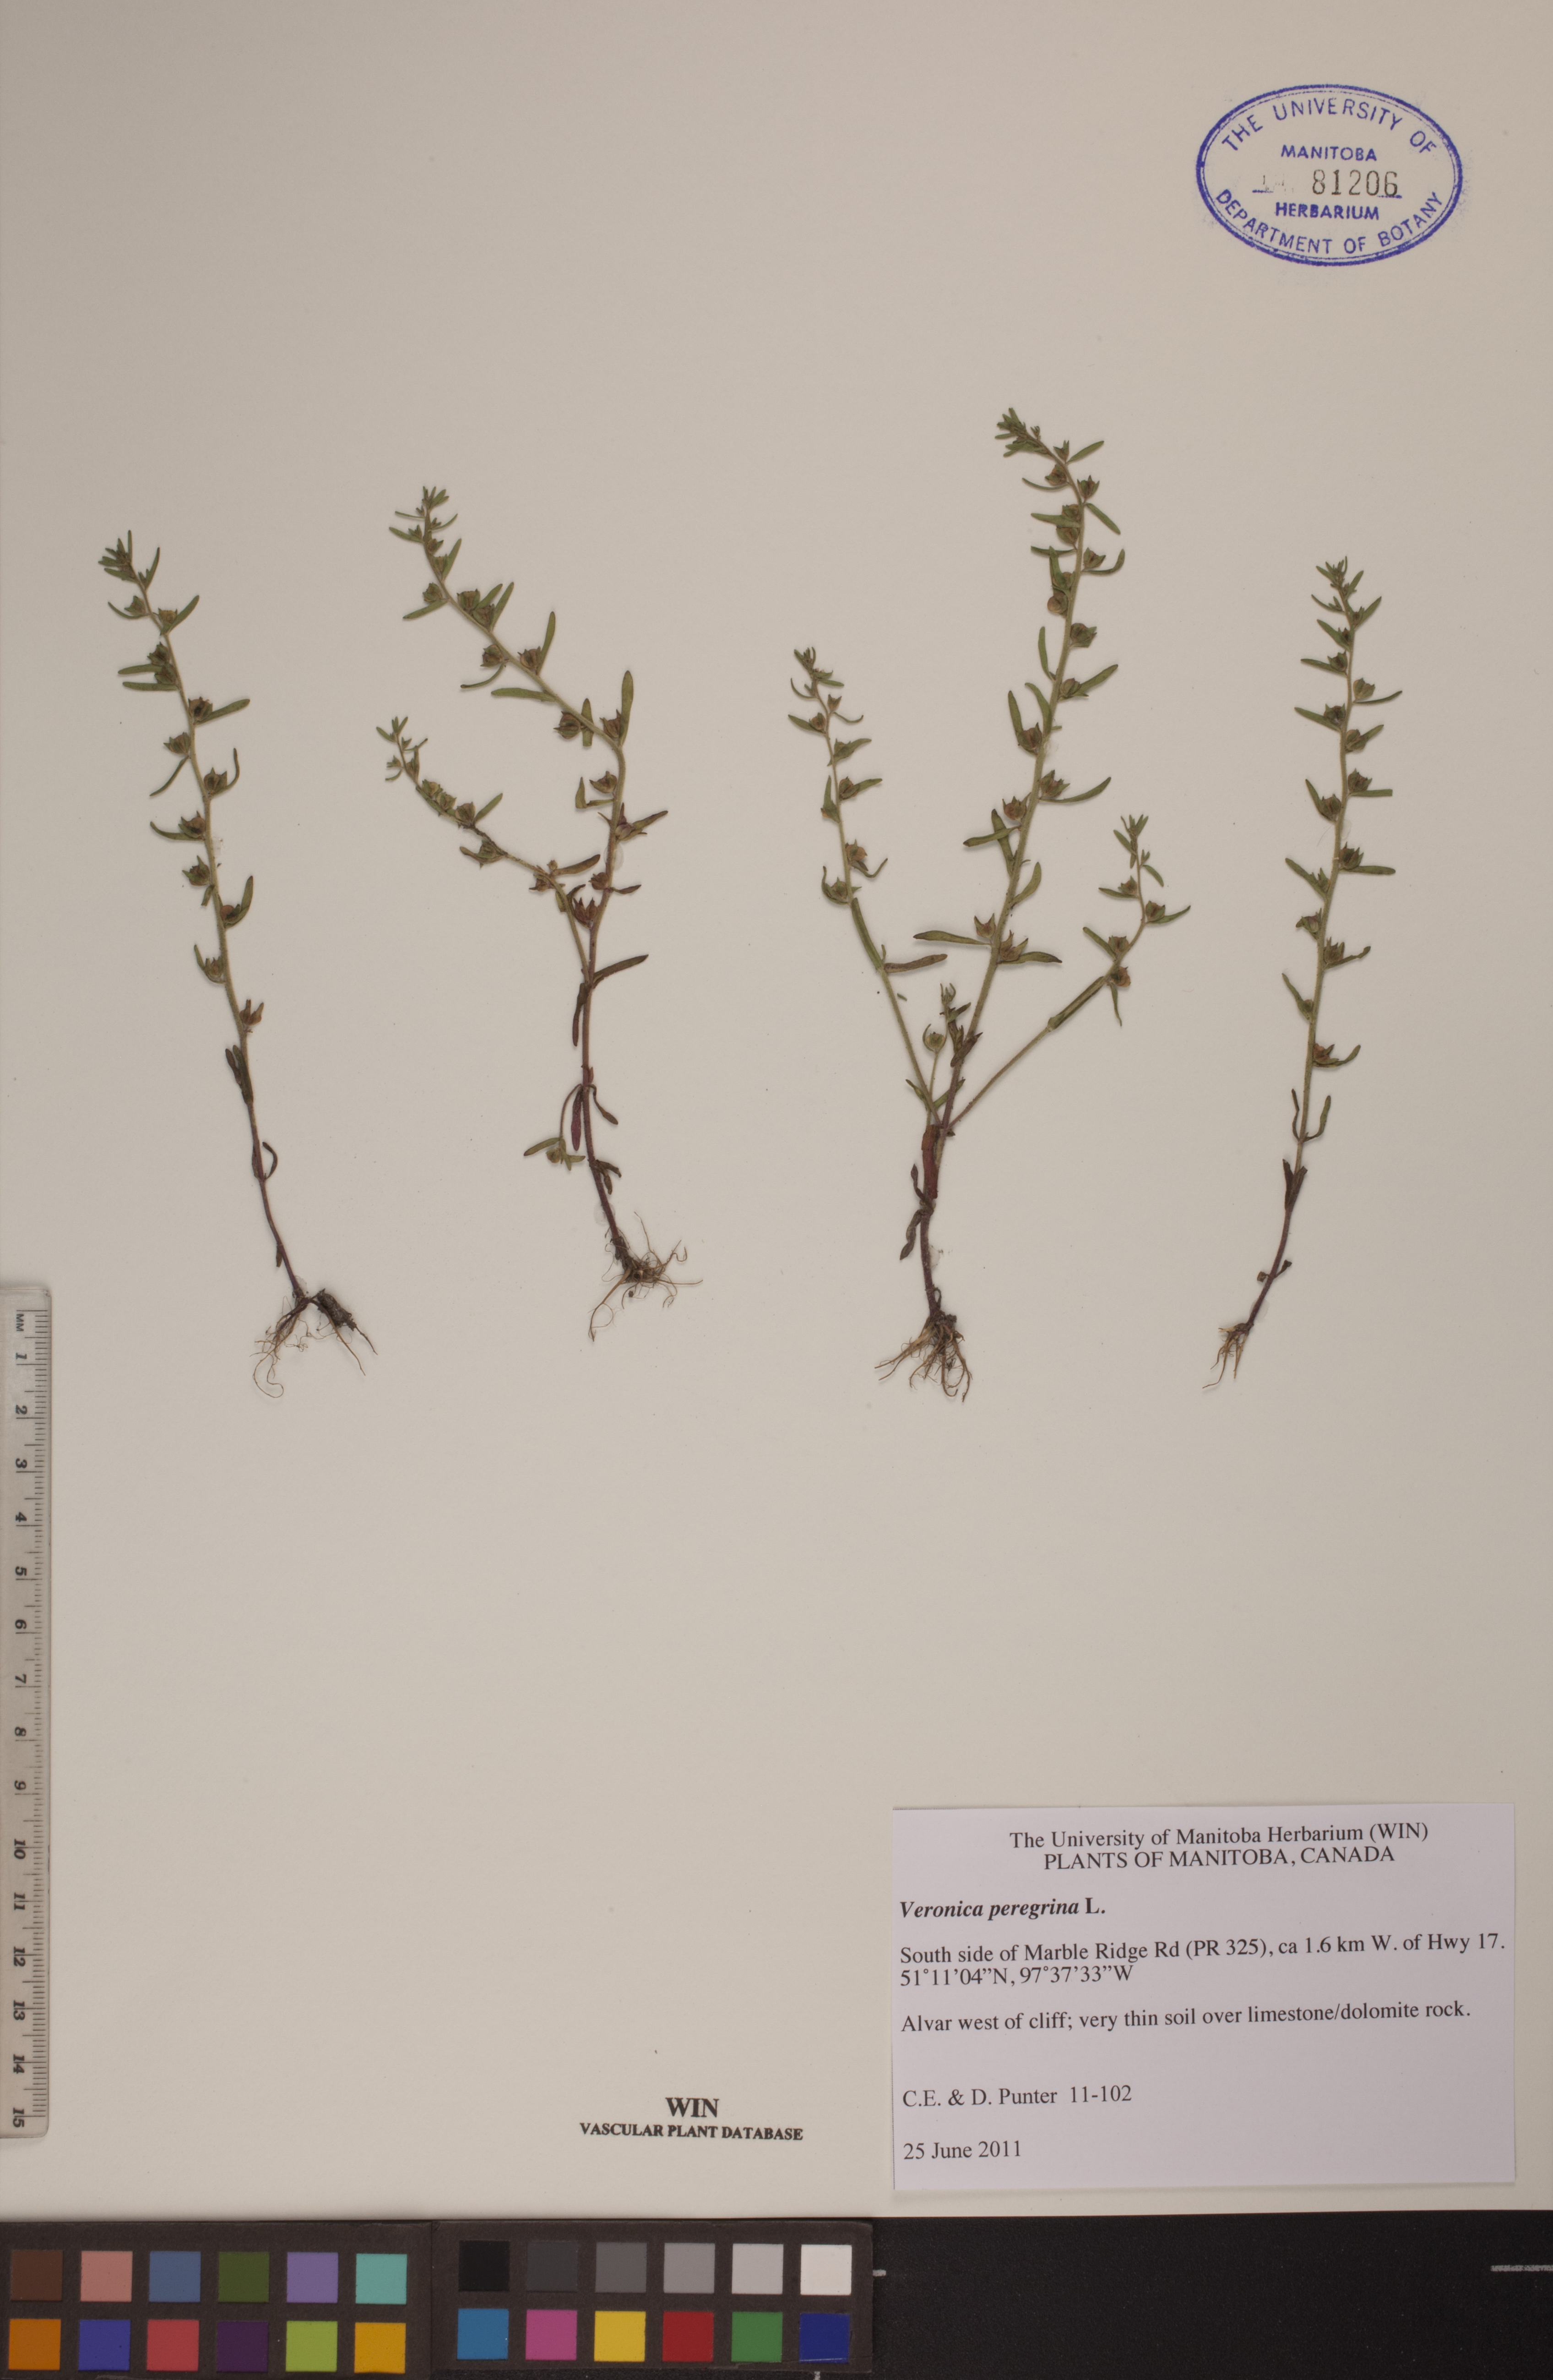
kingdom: Plantae
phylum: Tracheophyta
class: Magnoliopsida
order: Lamiales
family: Plantaginaceae
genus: Veronica
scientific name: Veronica peregrina
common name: Neckweed
